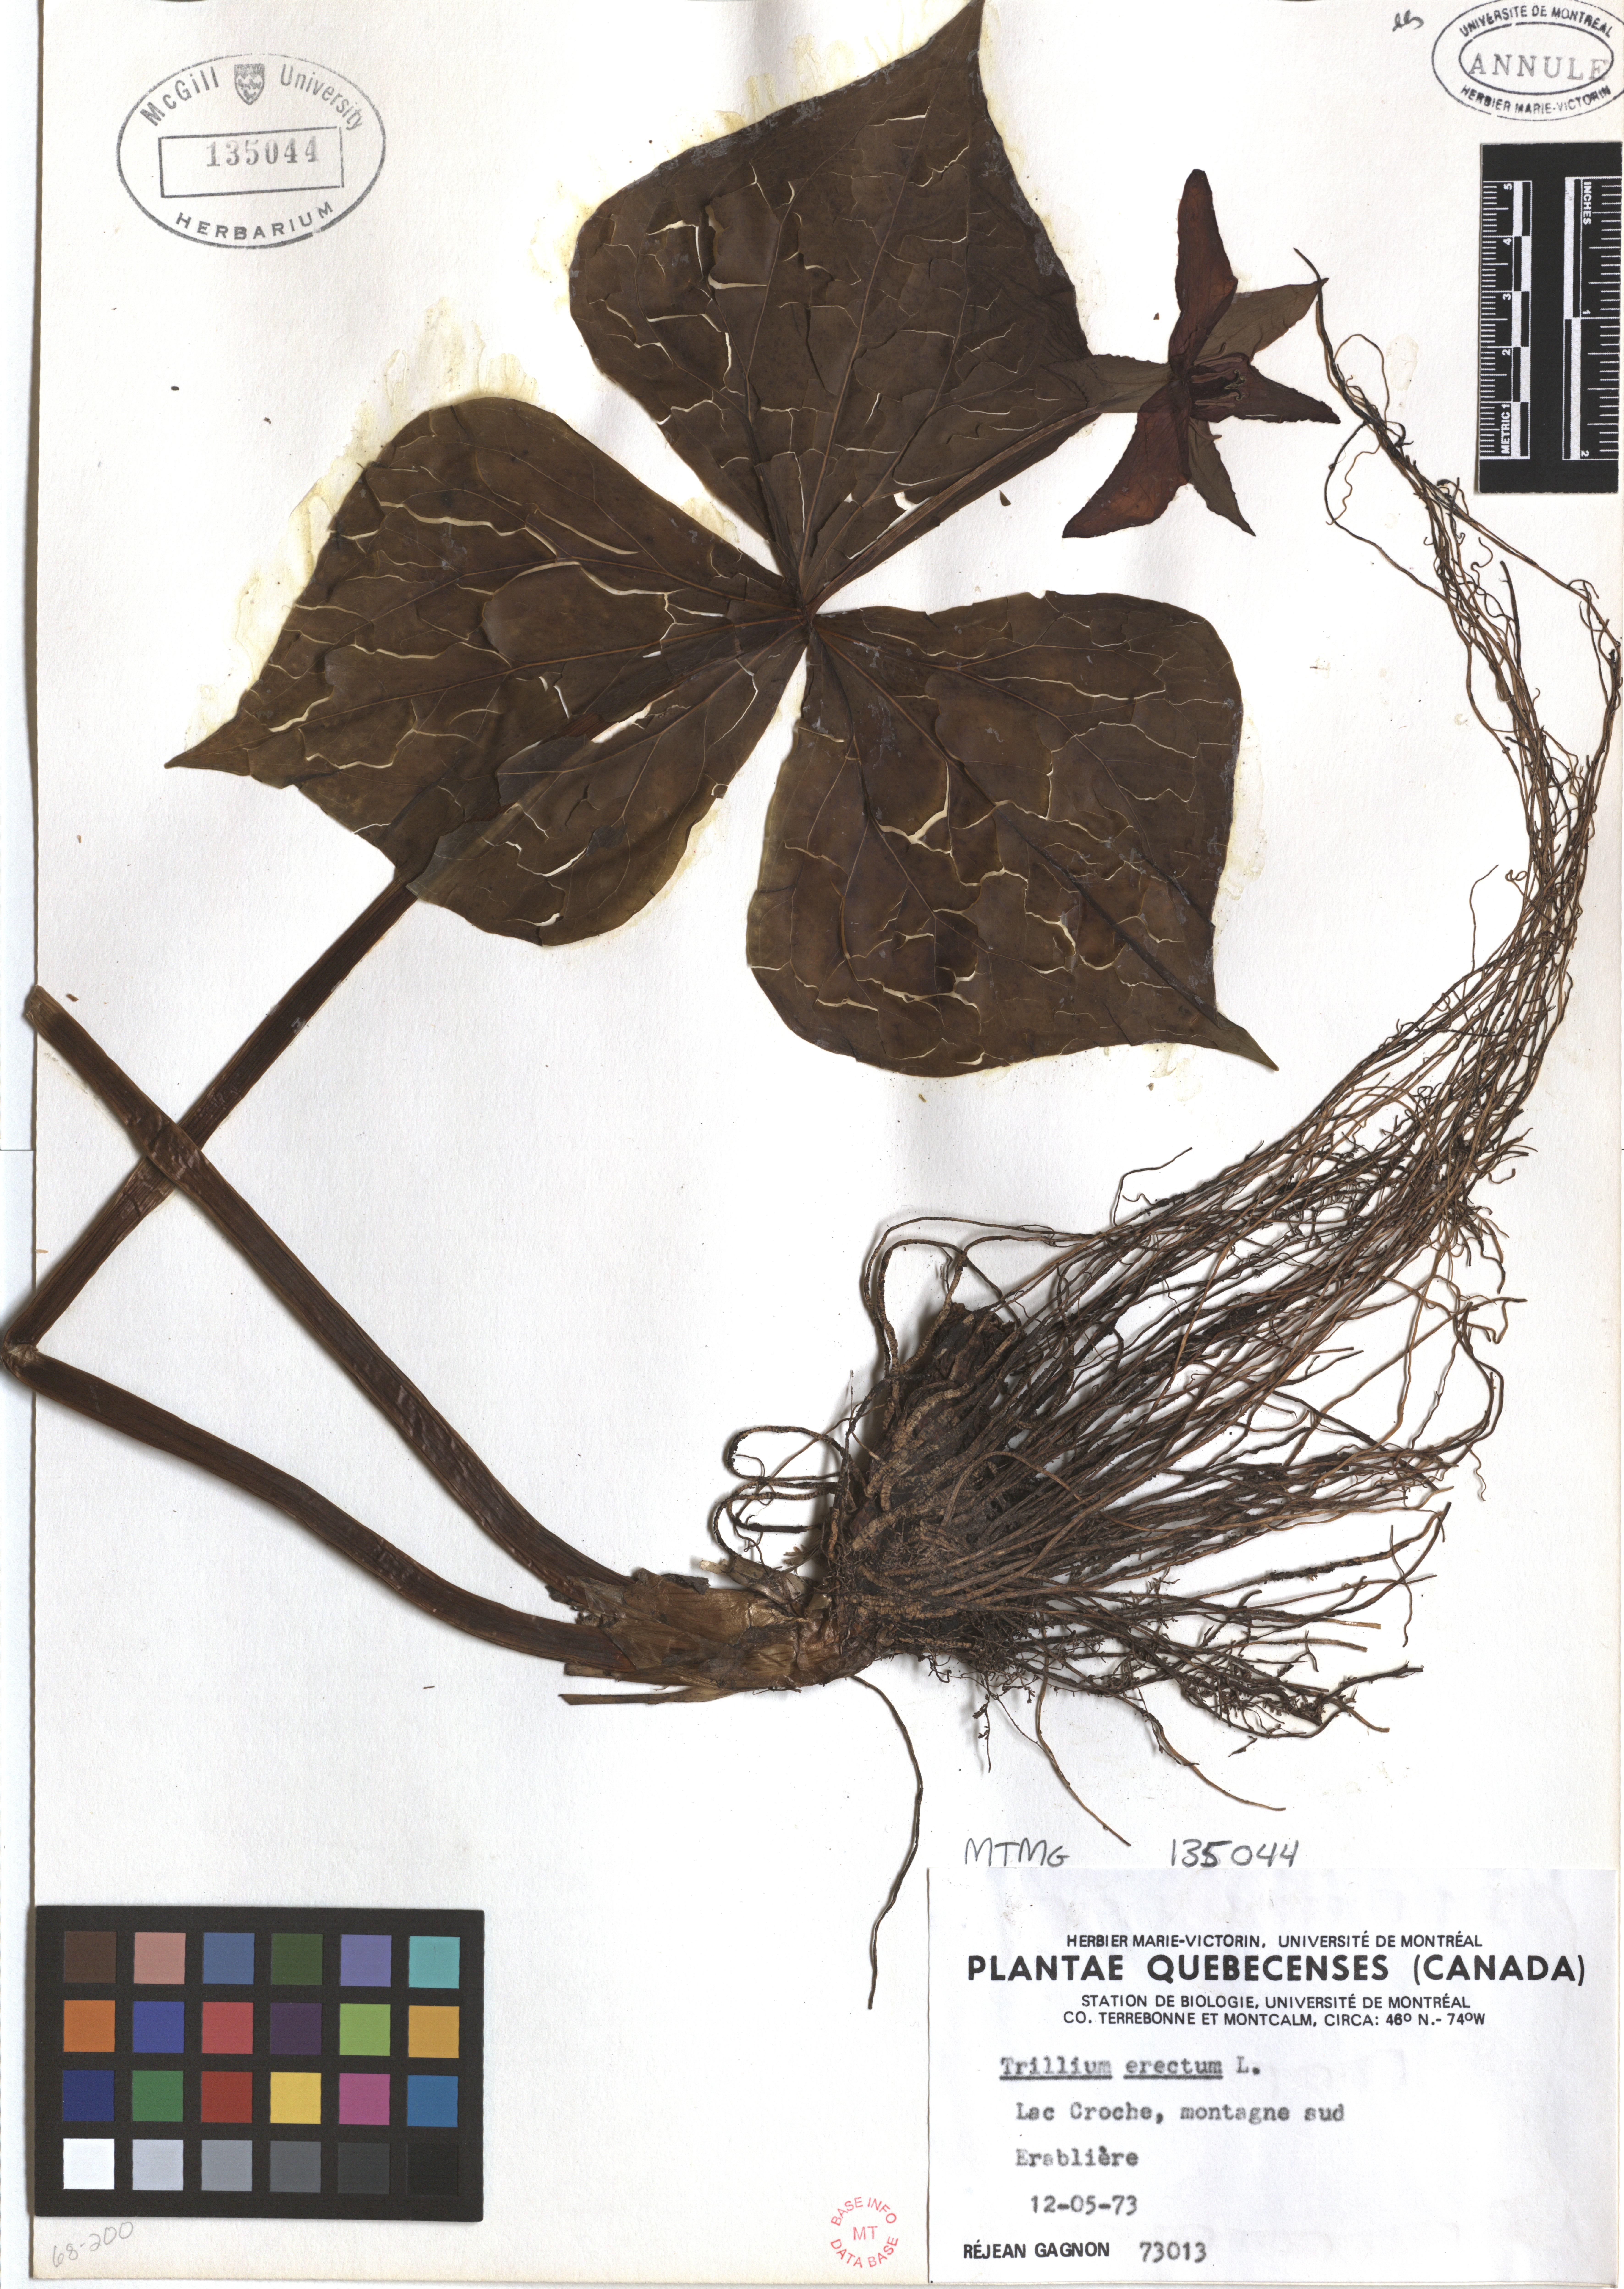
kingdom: Plantae
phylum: Tracheophyta
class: Liliopsida
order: Liliales
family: Melanthiaceae
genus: Trillium
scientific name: Trillium erectum
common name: Purple trillium
